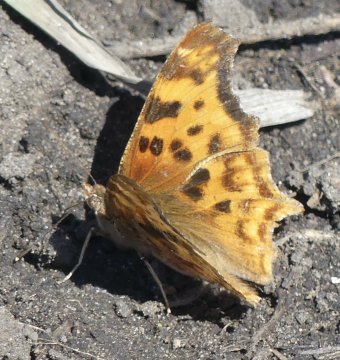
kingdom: Animalia
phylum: Arthropoda
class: Insecta
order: Lepidoptera
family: Nymphalidae
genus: Polygonia
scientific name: Polygonia satyrus
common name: Satyr Comma
